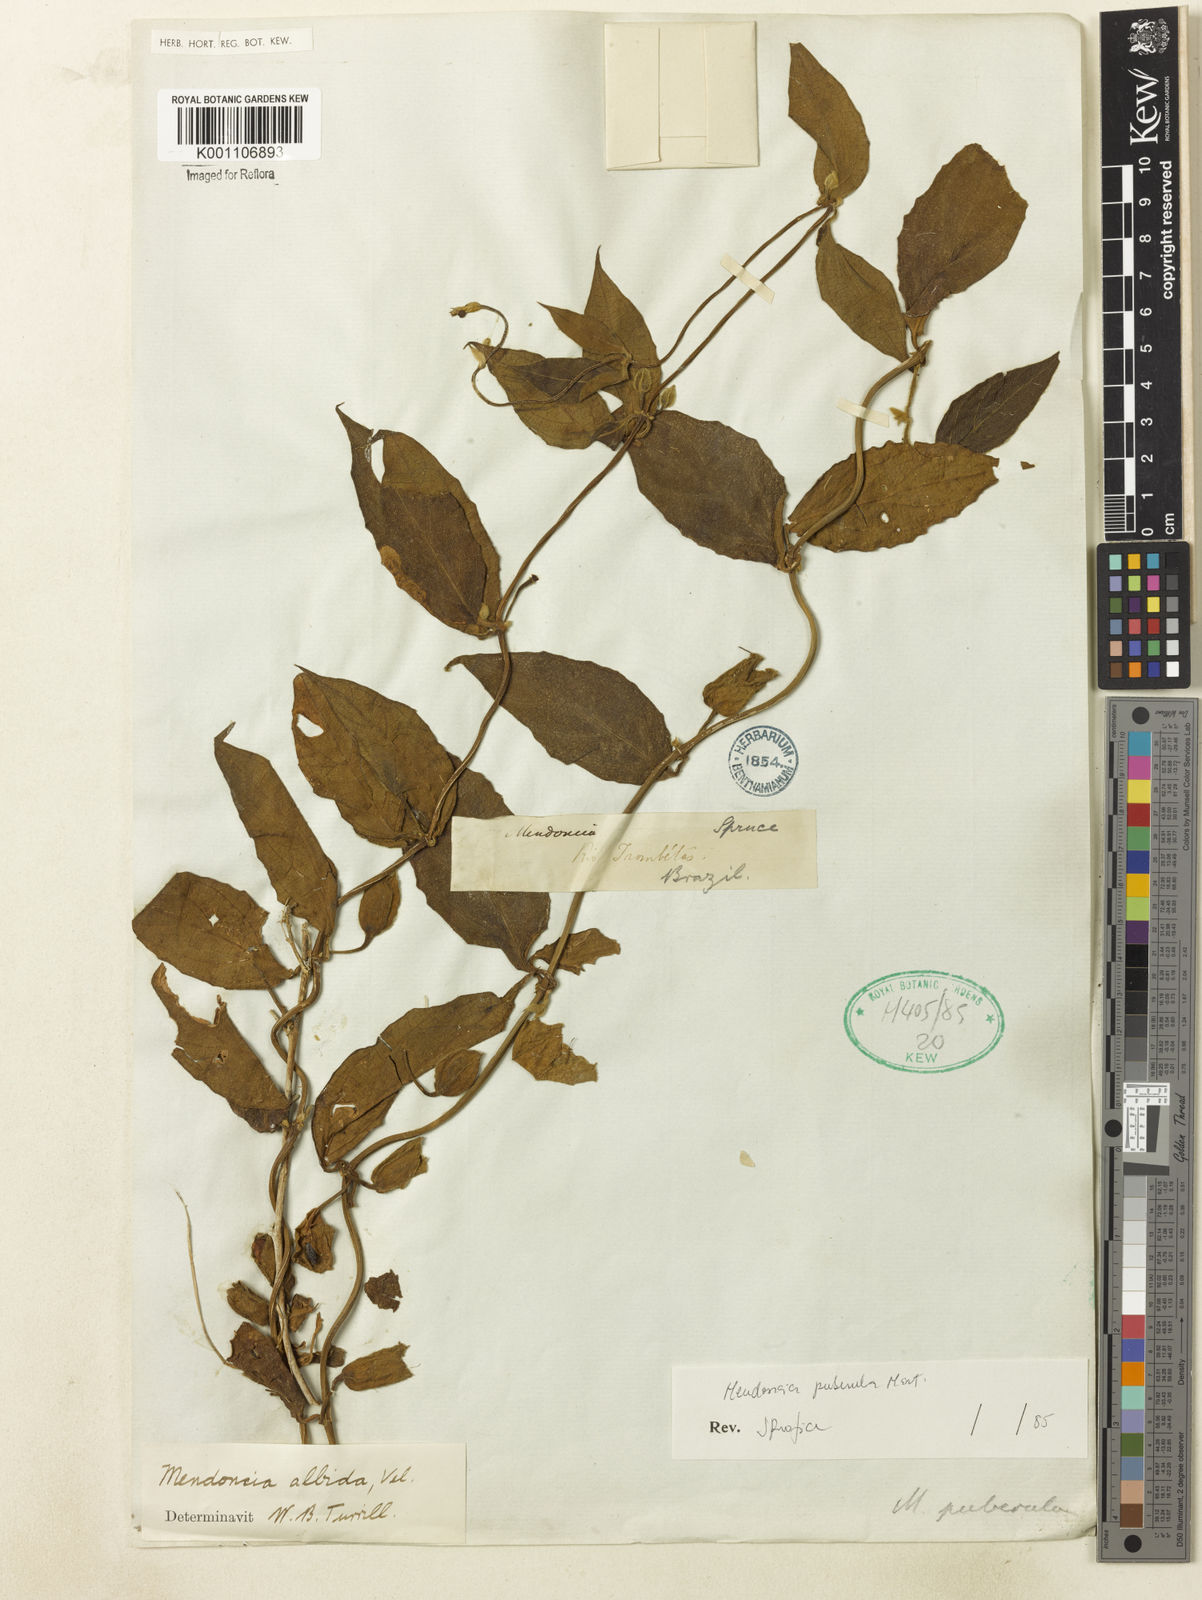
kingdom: Plantae
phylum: Tracheophyta
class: Magnoliopsida
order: Lamiales
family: Acanthaceae
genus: Mendoncia
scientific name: Mendoncia puberula
